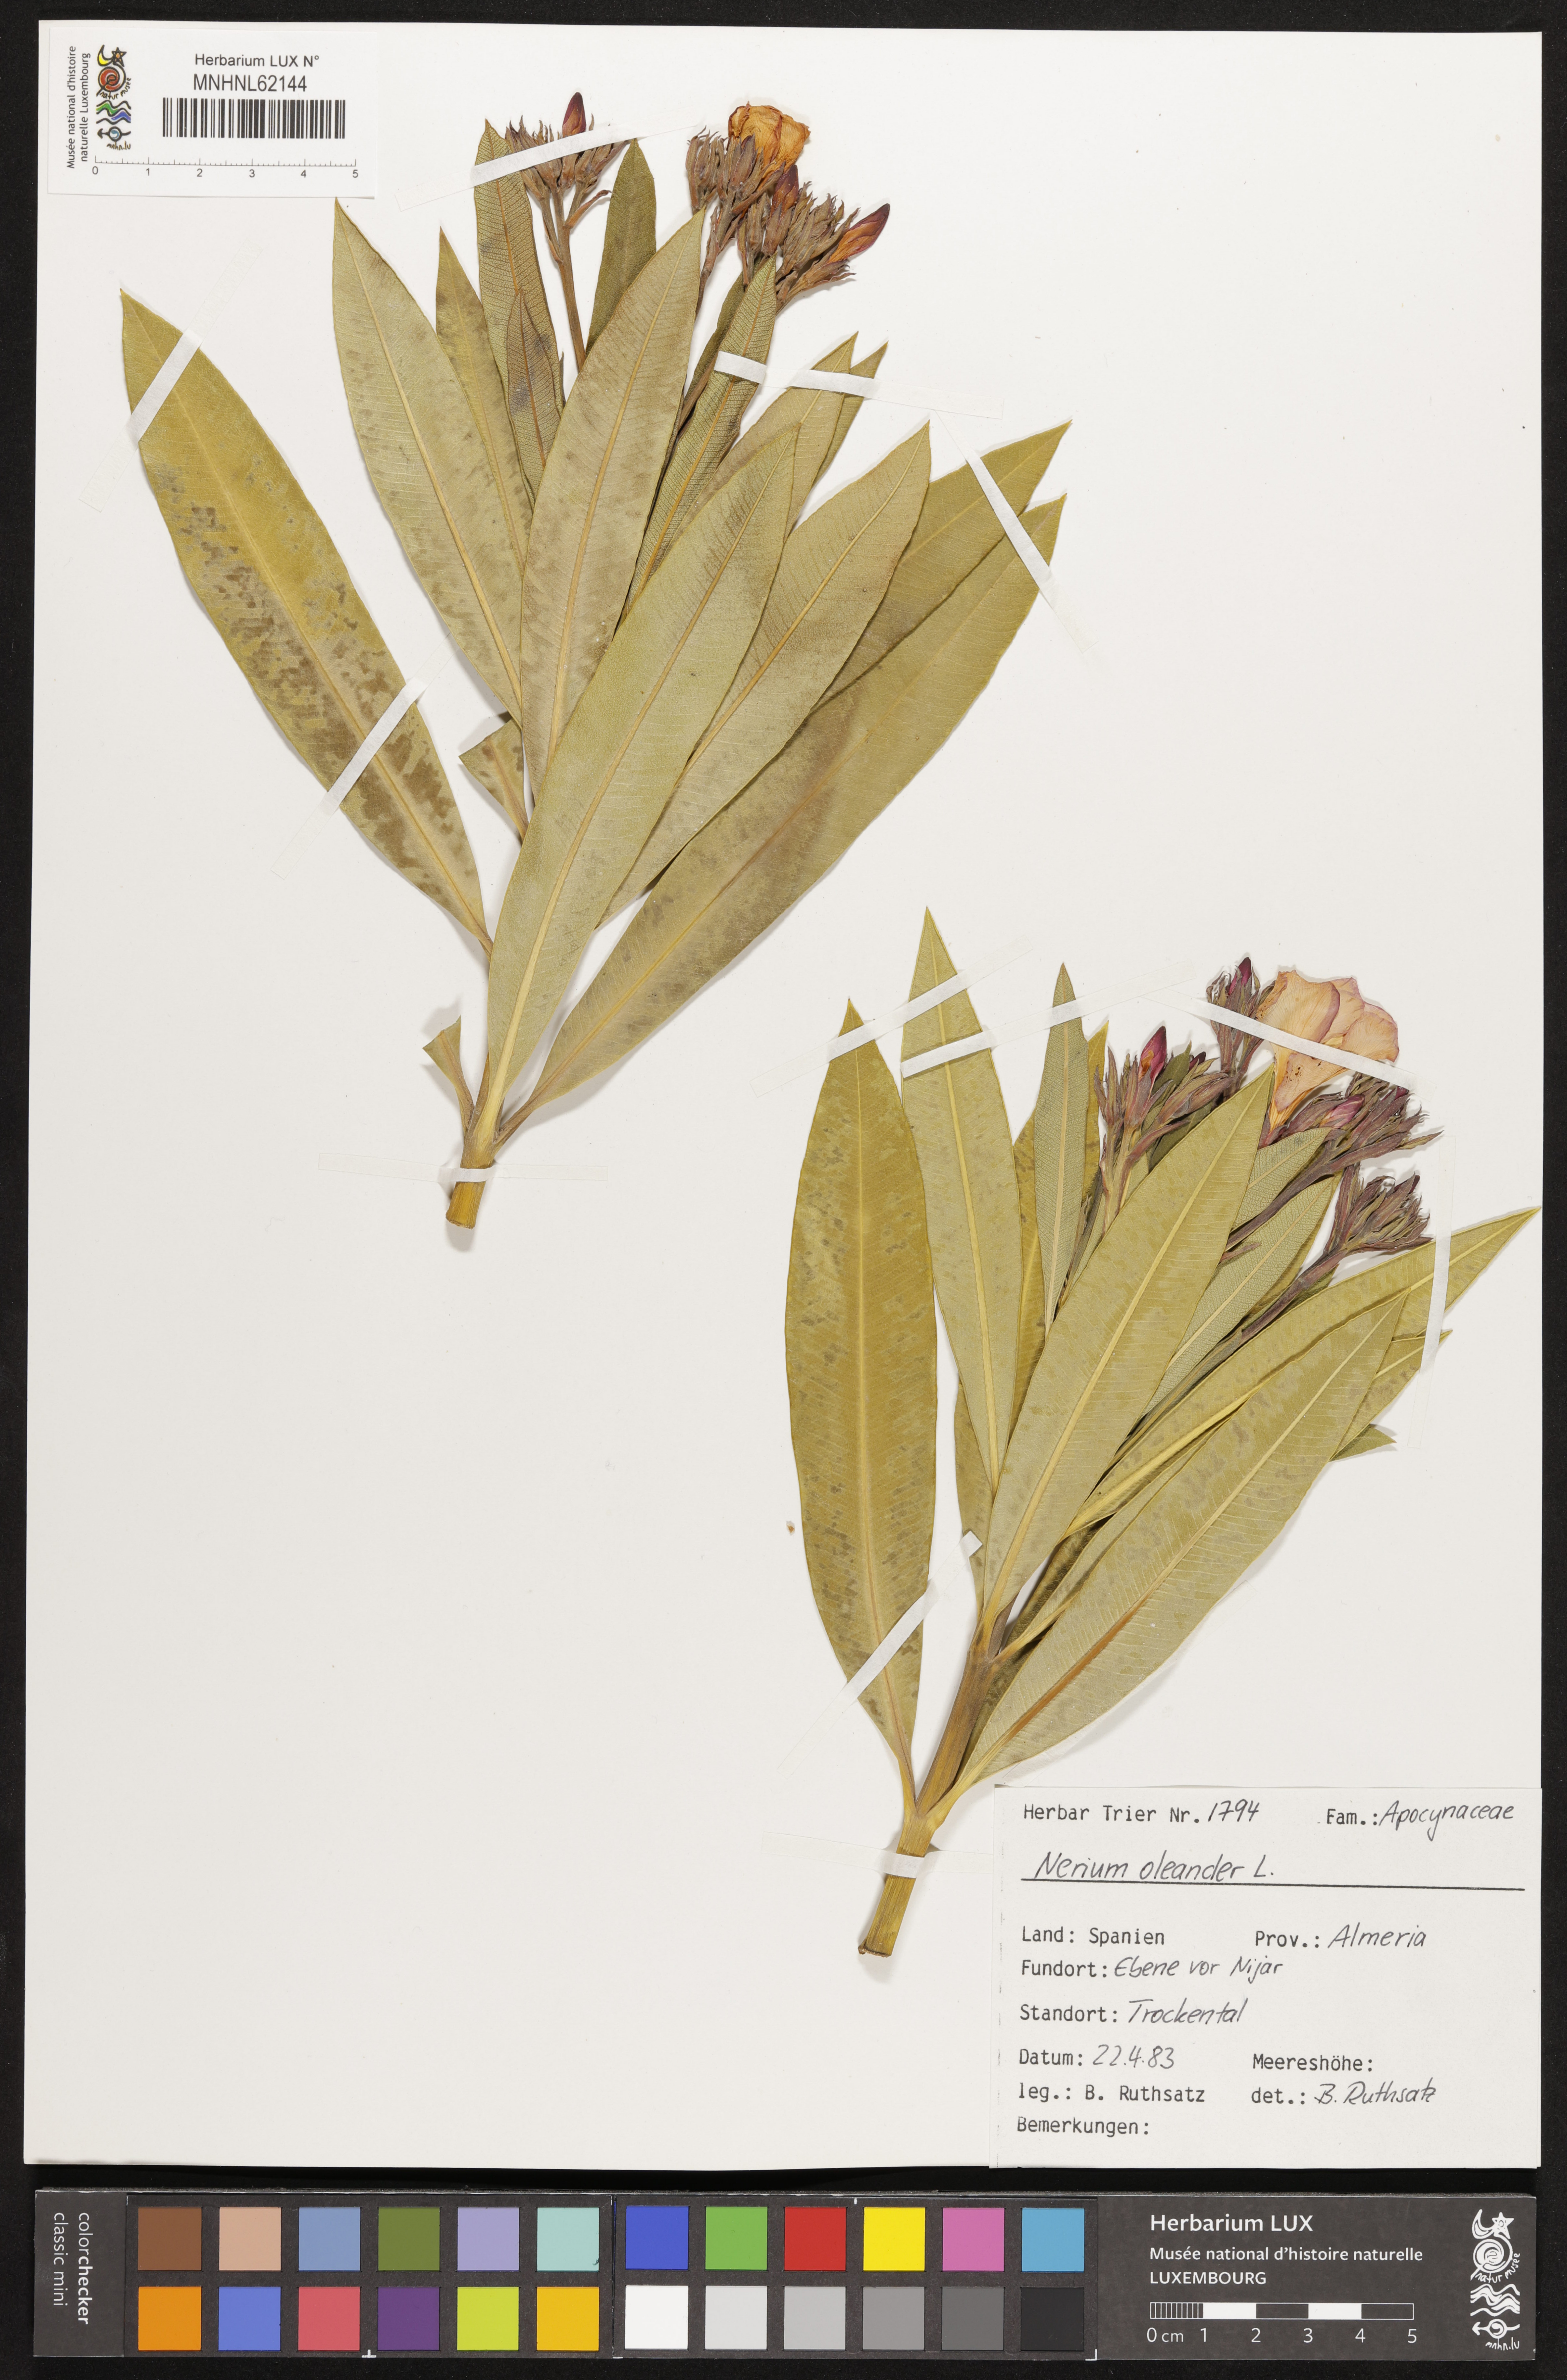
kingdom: Plantae
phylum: Tracheophyta
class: Magnoliopsida
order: Gentianales
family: Apocynaceae
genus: Nerium
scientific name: Nerium oleander
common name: Oleander
